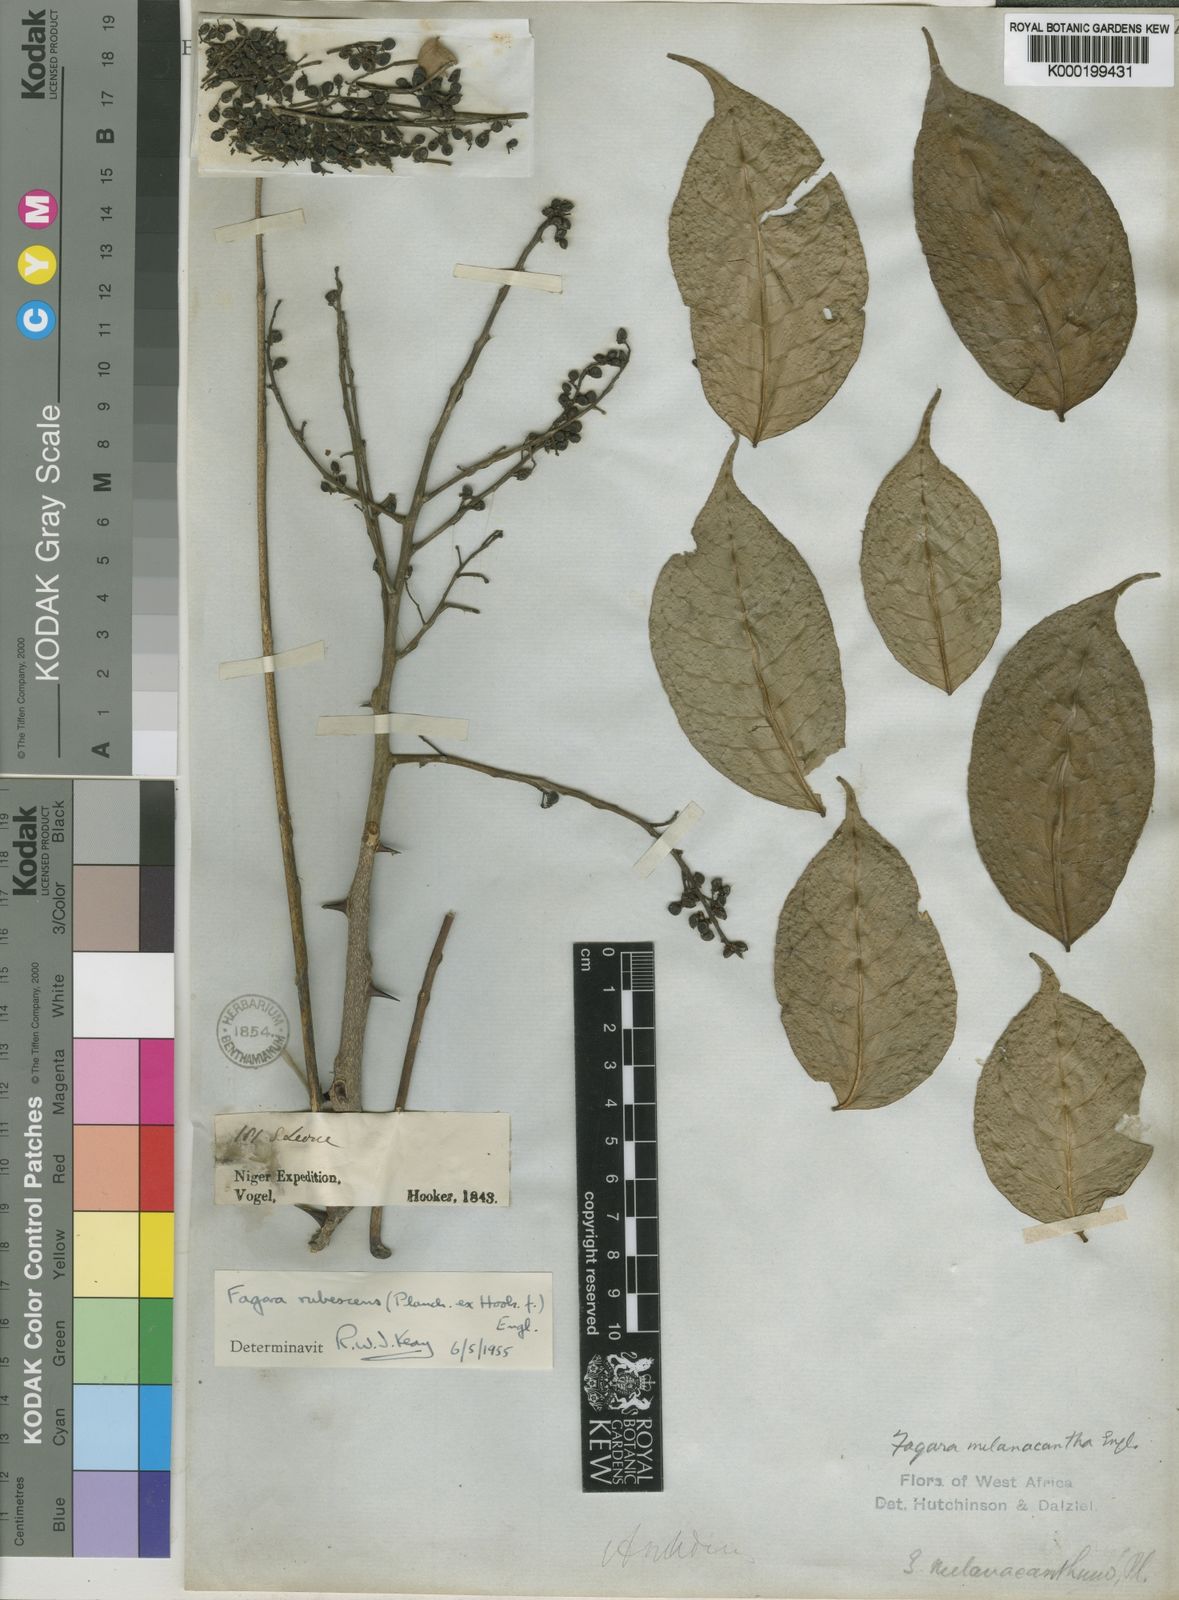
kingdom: Plantae
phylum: Tracheophyta
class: Magnoliopsida
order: Sapindales
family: Rutaceae
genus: Zanthoxylum
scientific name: Zanthoxylum rubescens
